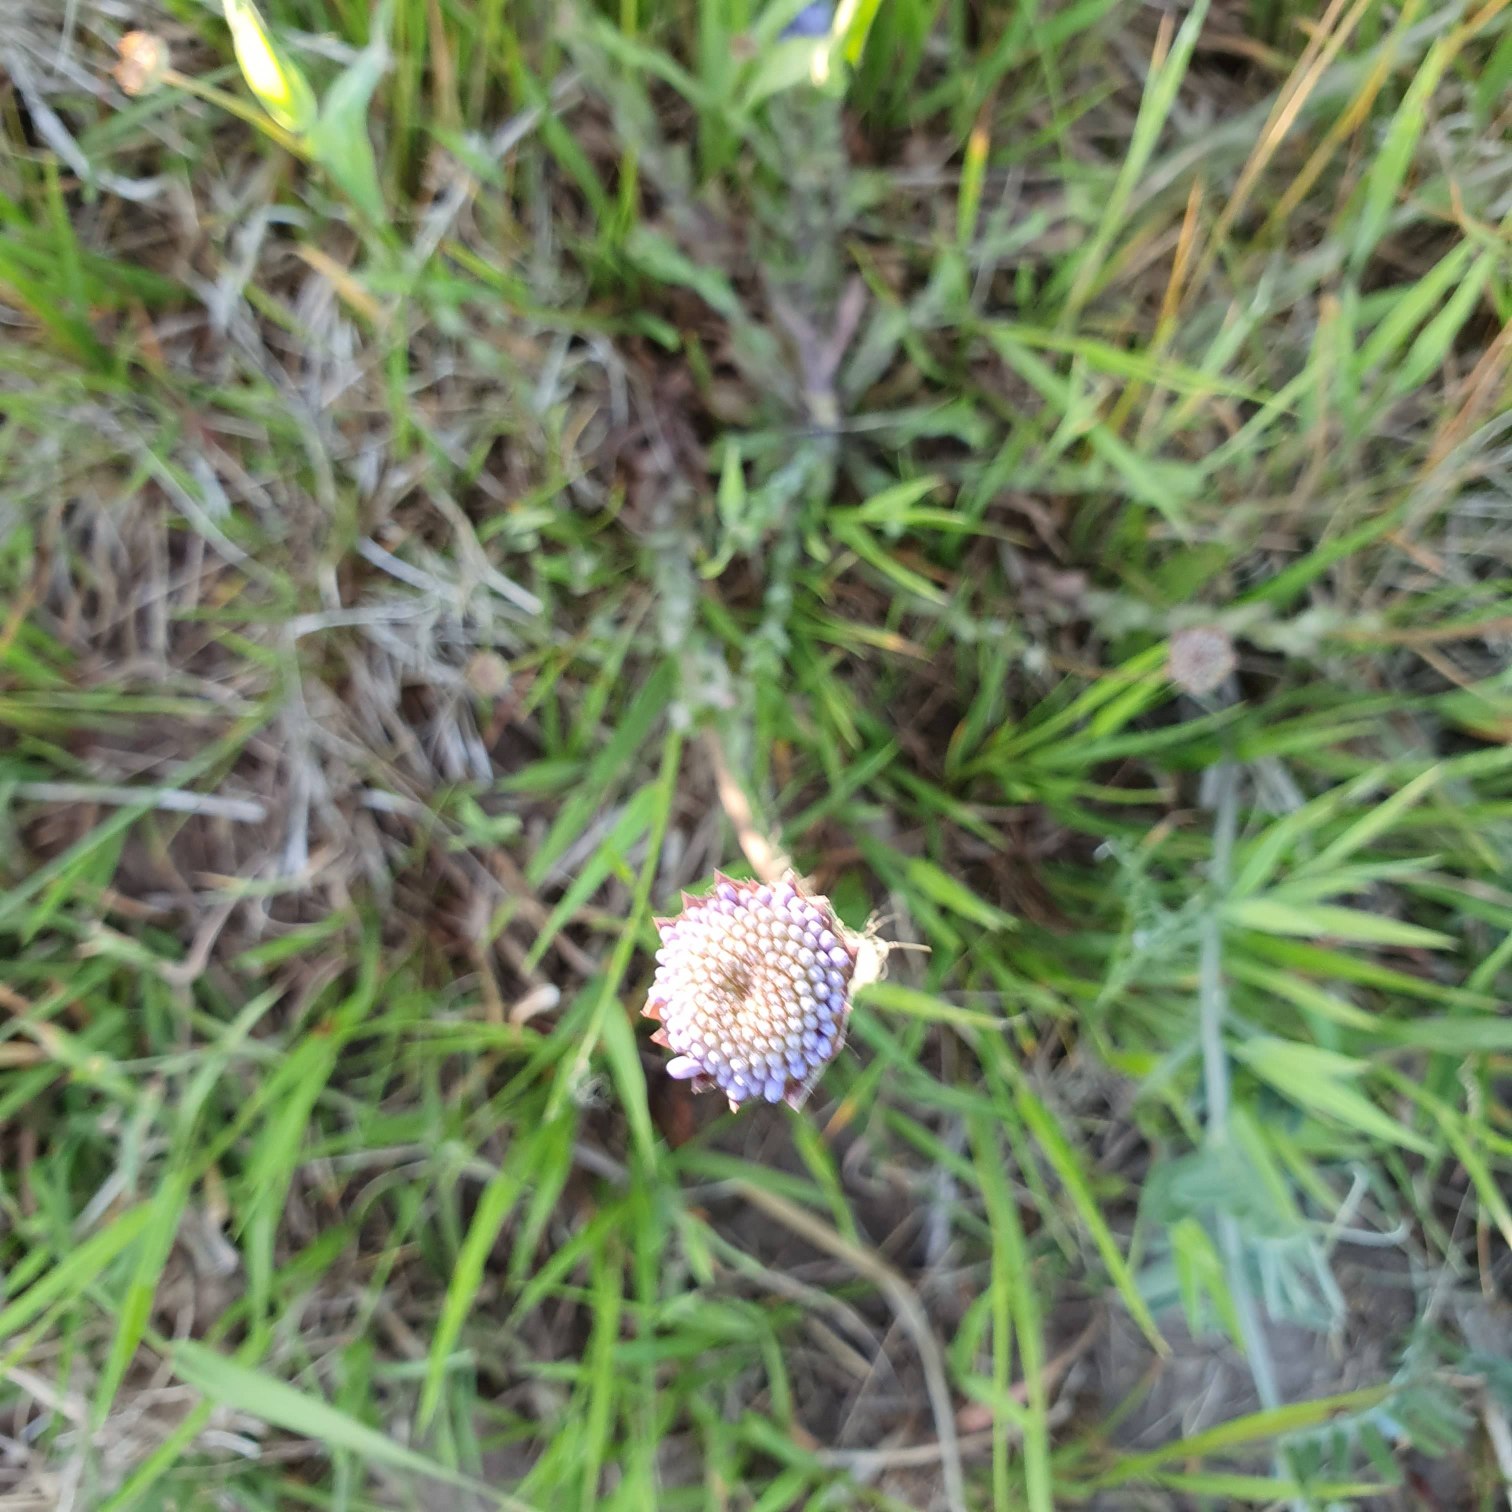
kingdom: Plantae
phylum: Tracheophyta
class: Magnoliopsida
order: Asterales
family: Campanulaceae
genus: Jasione
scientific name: Jasione montana
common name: Blåmunke
